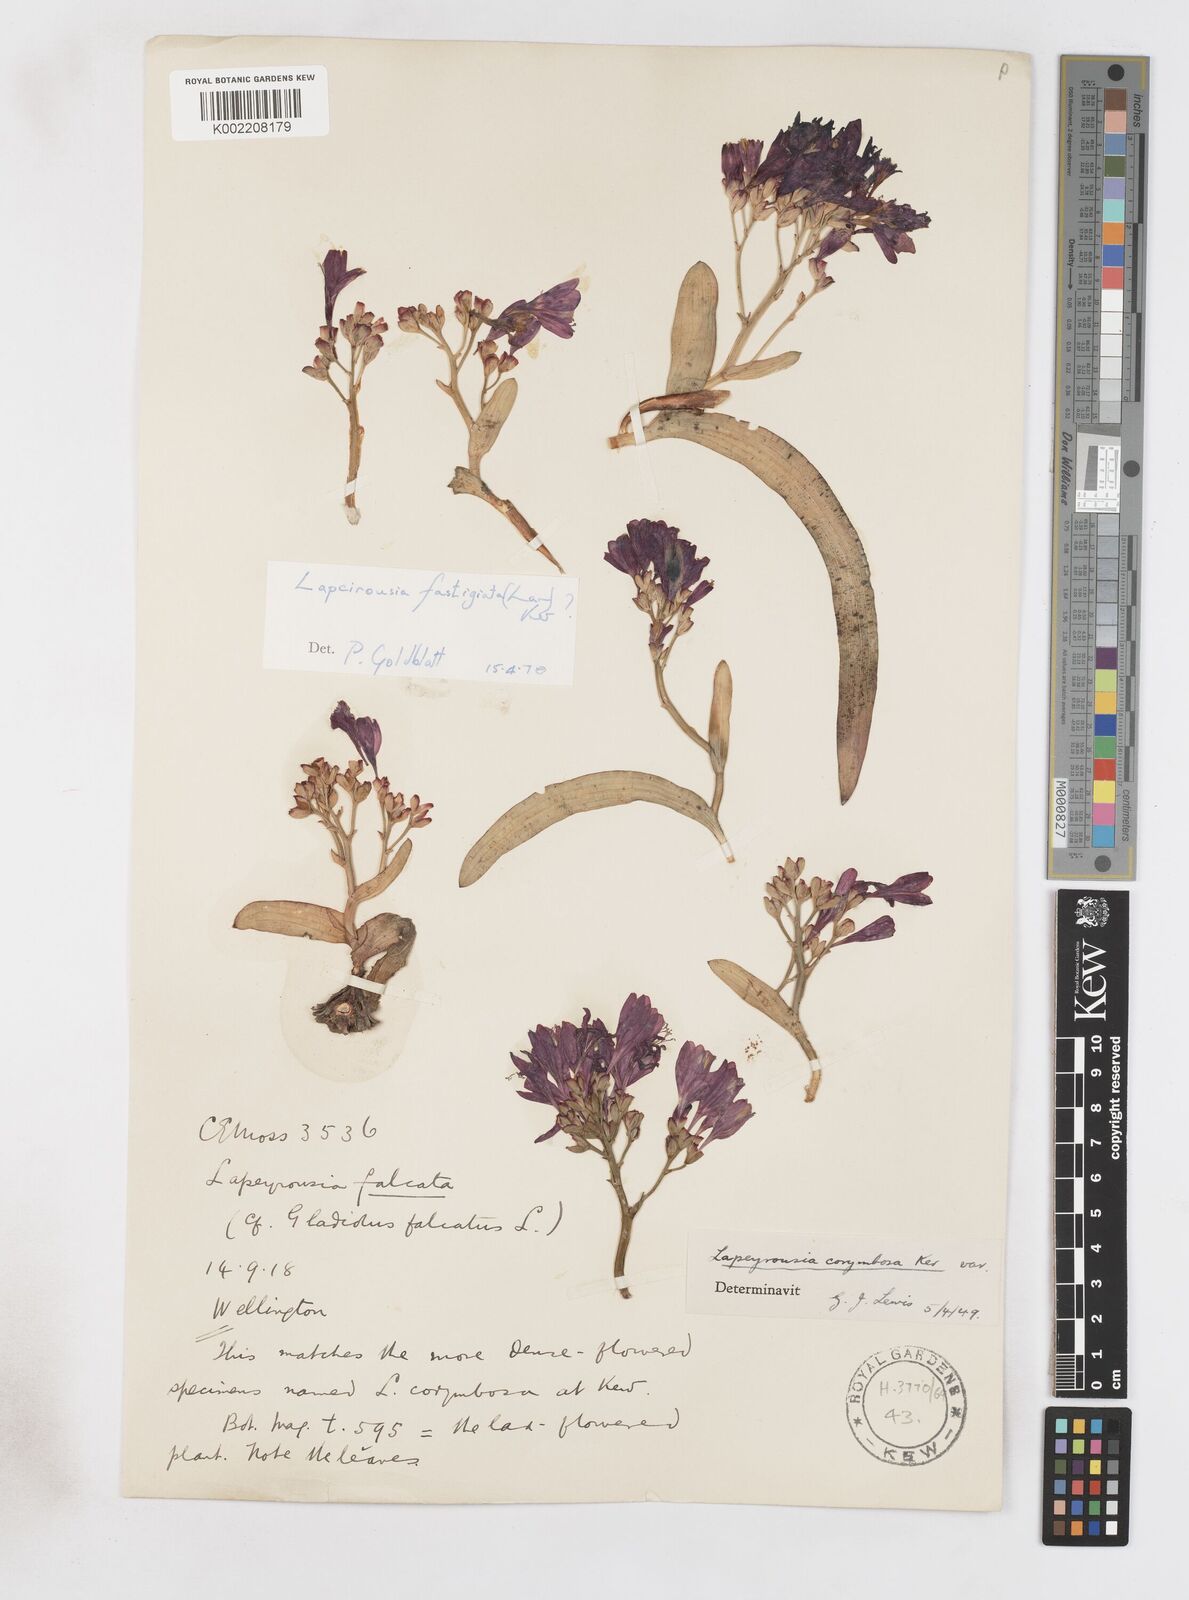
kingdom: Plantae
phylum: Tracheophyta
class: Liliopsida
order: Asparagales
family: Iridaceae
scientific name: Iridaceae
